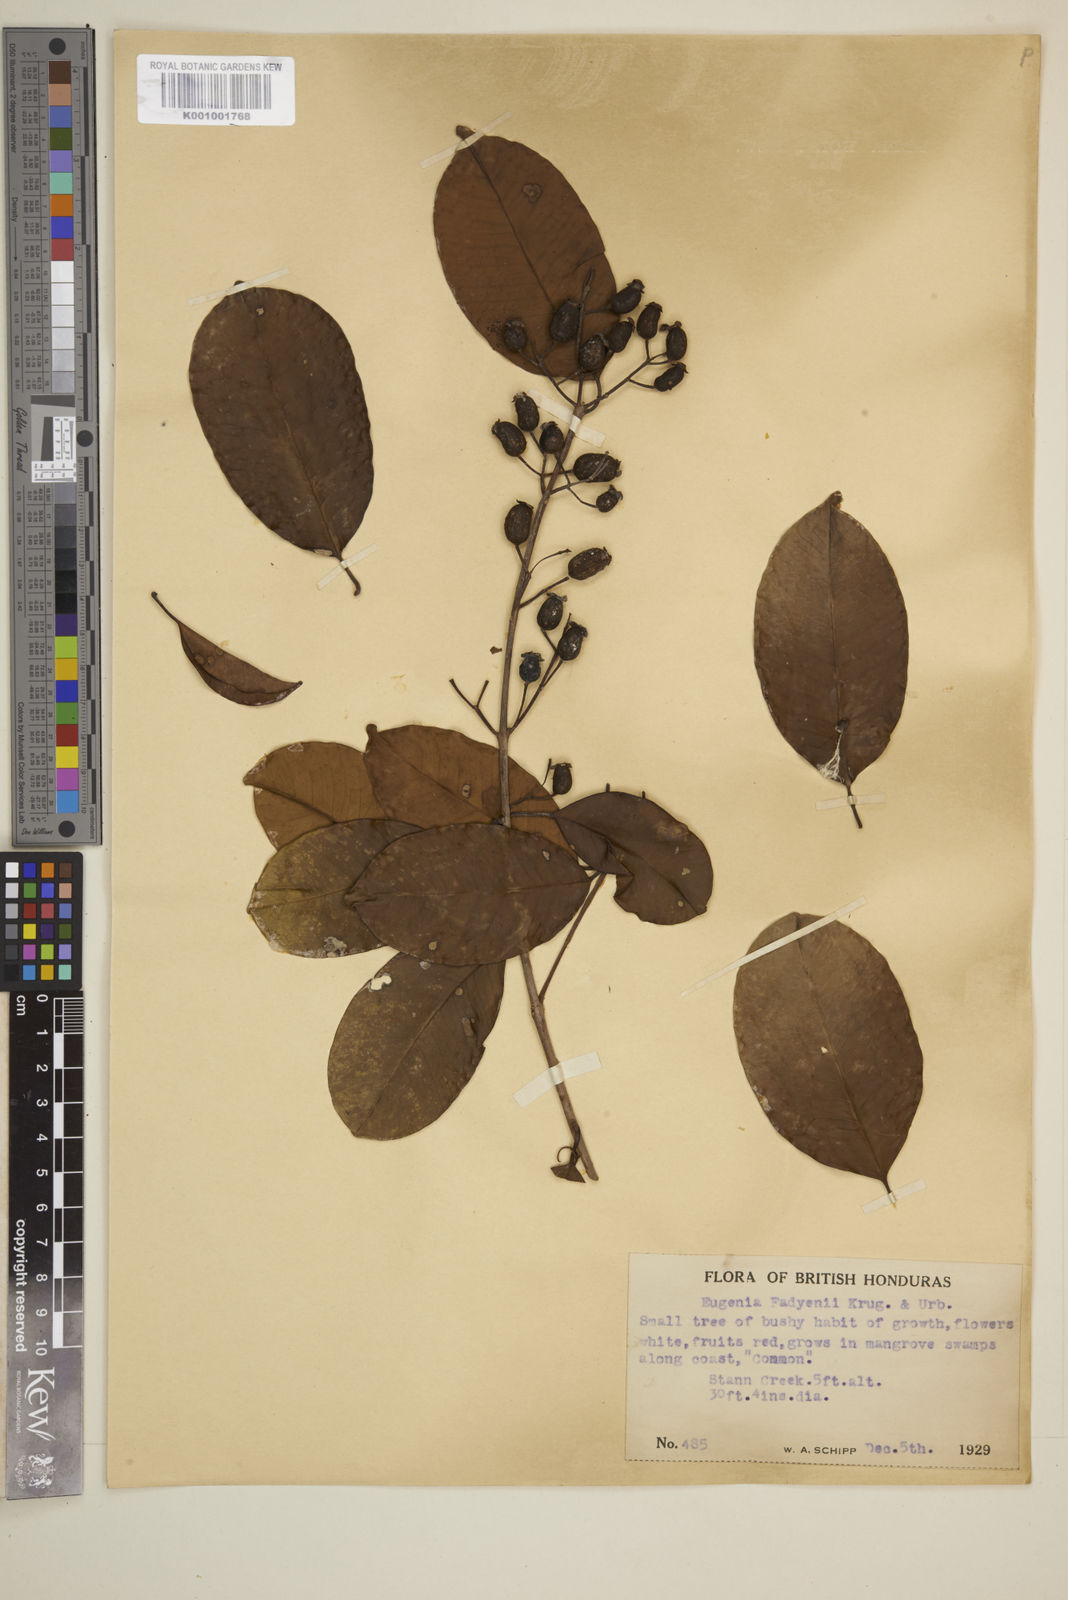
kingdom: Plantae
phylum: Tracheophyta
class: Magnoliopsida
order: Myrtales
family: Myrtaceae
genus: Eugenia
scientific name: Eugenia aeruginea
